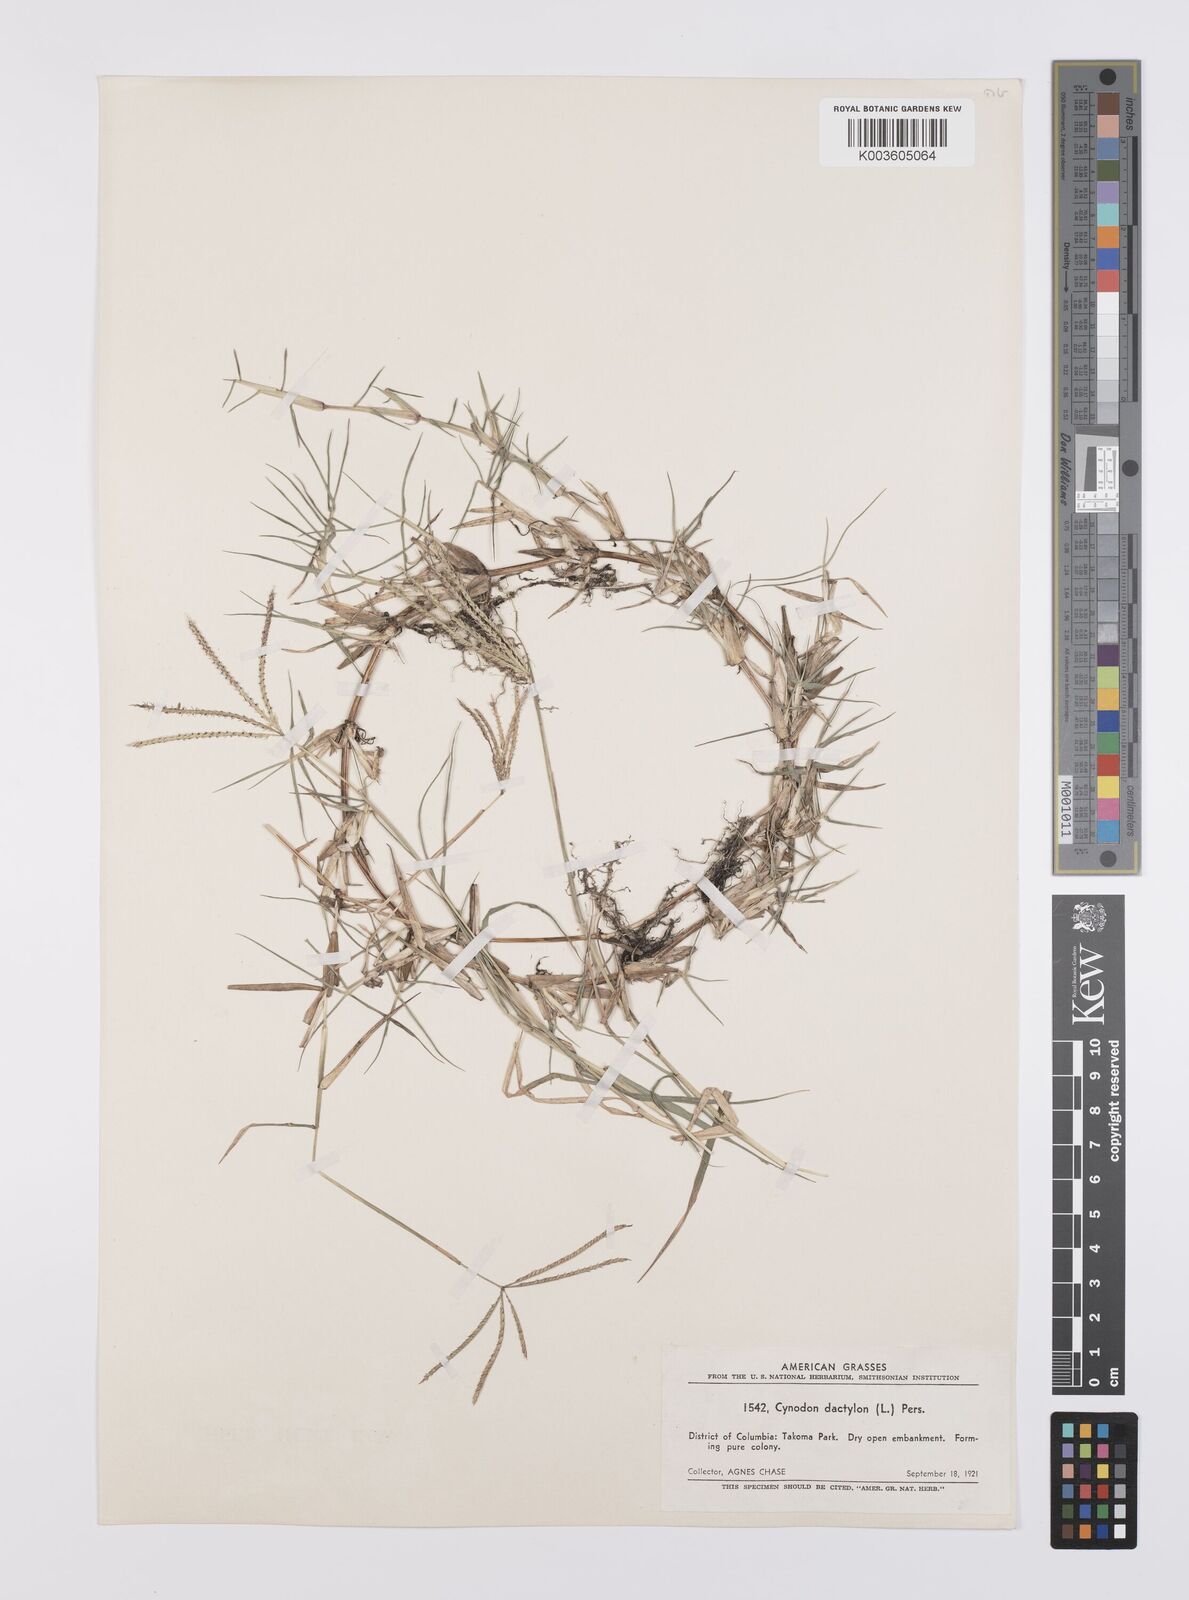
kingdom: Plantae
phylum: Tracheophyta
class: Liliopsida
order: Poales
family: Poaceae
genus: Cynodon
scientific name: Cynodon dactylon
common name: Bermuda grass
